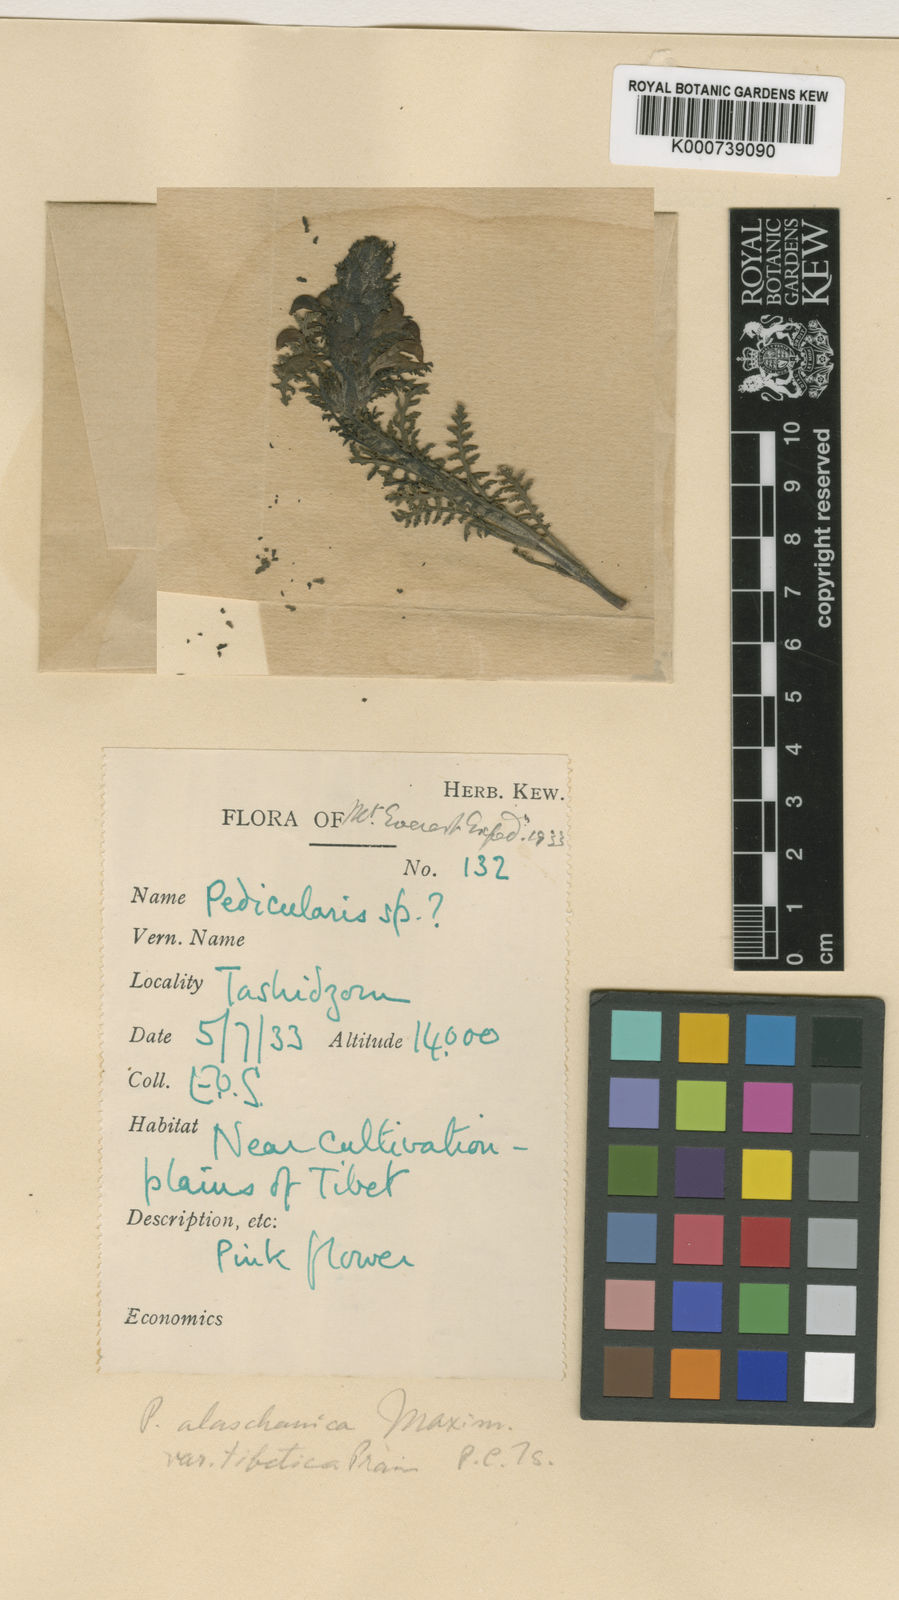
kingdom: Plantae
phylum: Tracheophyta
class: Magnoliopsida
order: Lamiales
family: Orobanchaceae
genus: Pedicularis
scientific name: Pedicularis
